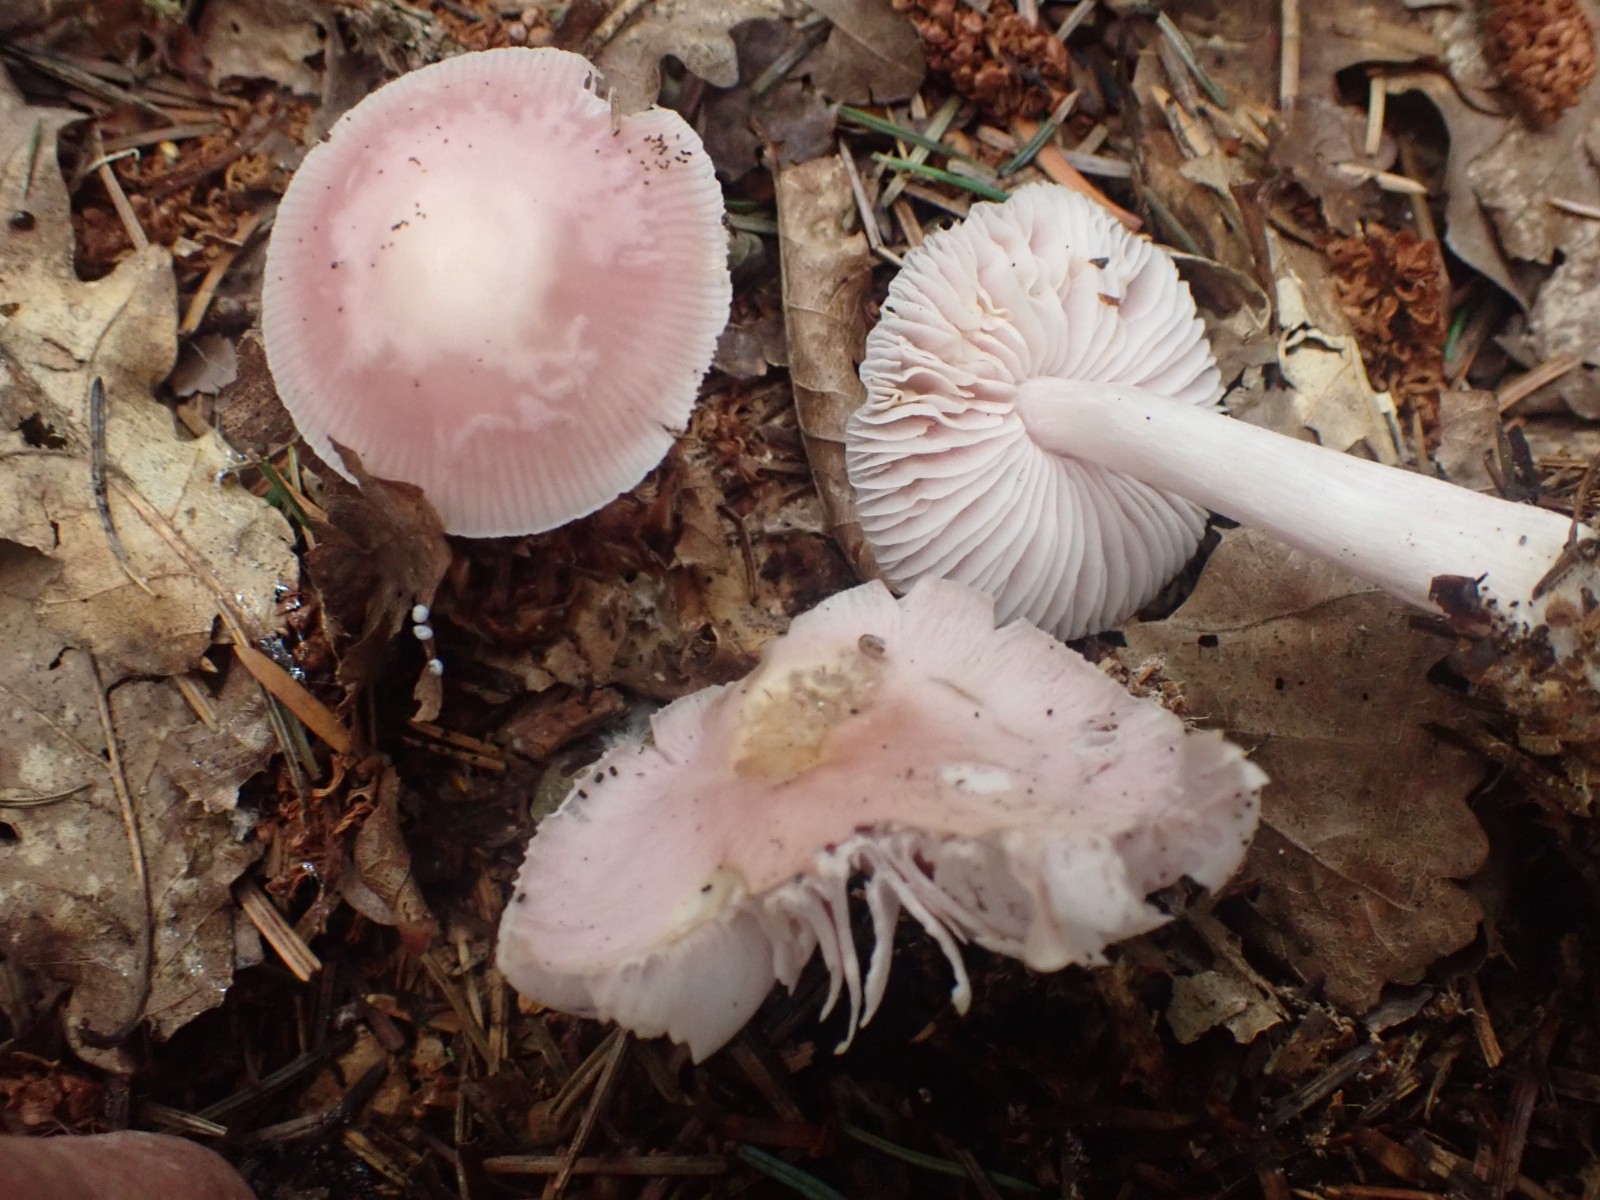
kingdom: Fungi
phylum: Basidiomycota
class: Agaricomycetes
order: Agaricales
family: Mycenaceae
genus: Mycena
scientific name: Mycena rosea
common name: rosa huesvamp
